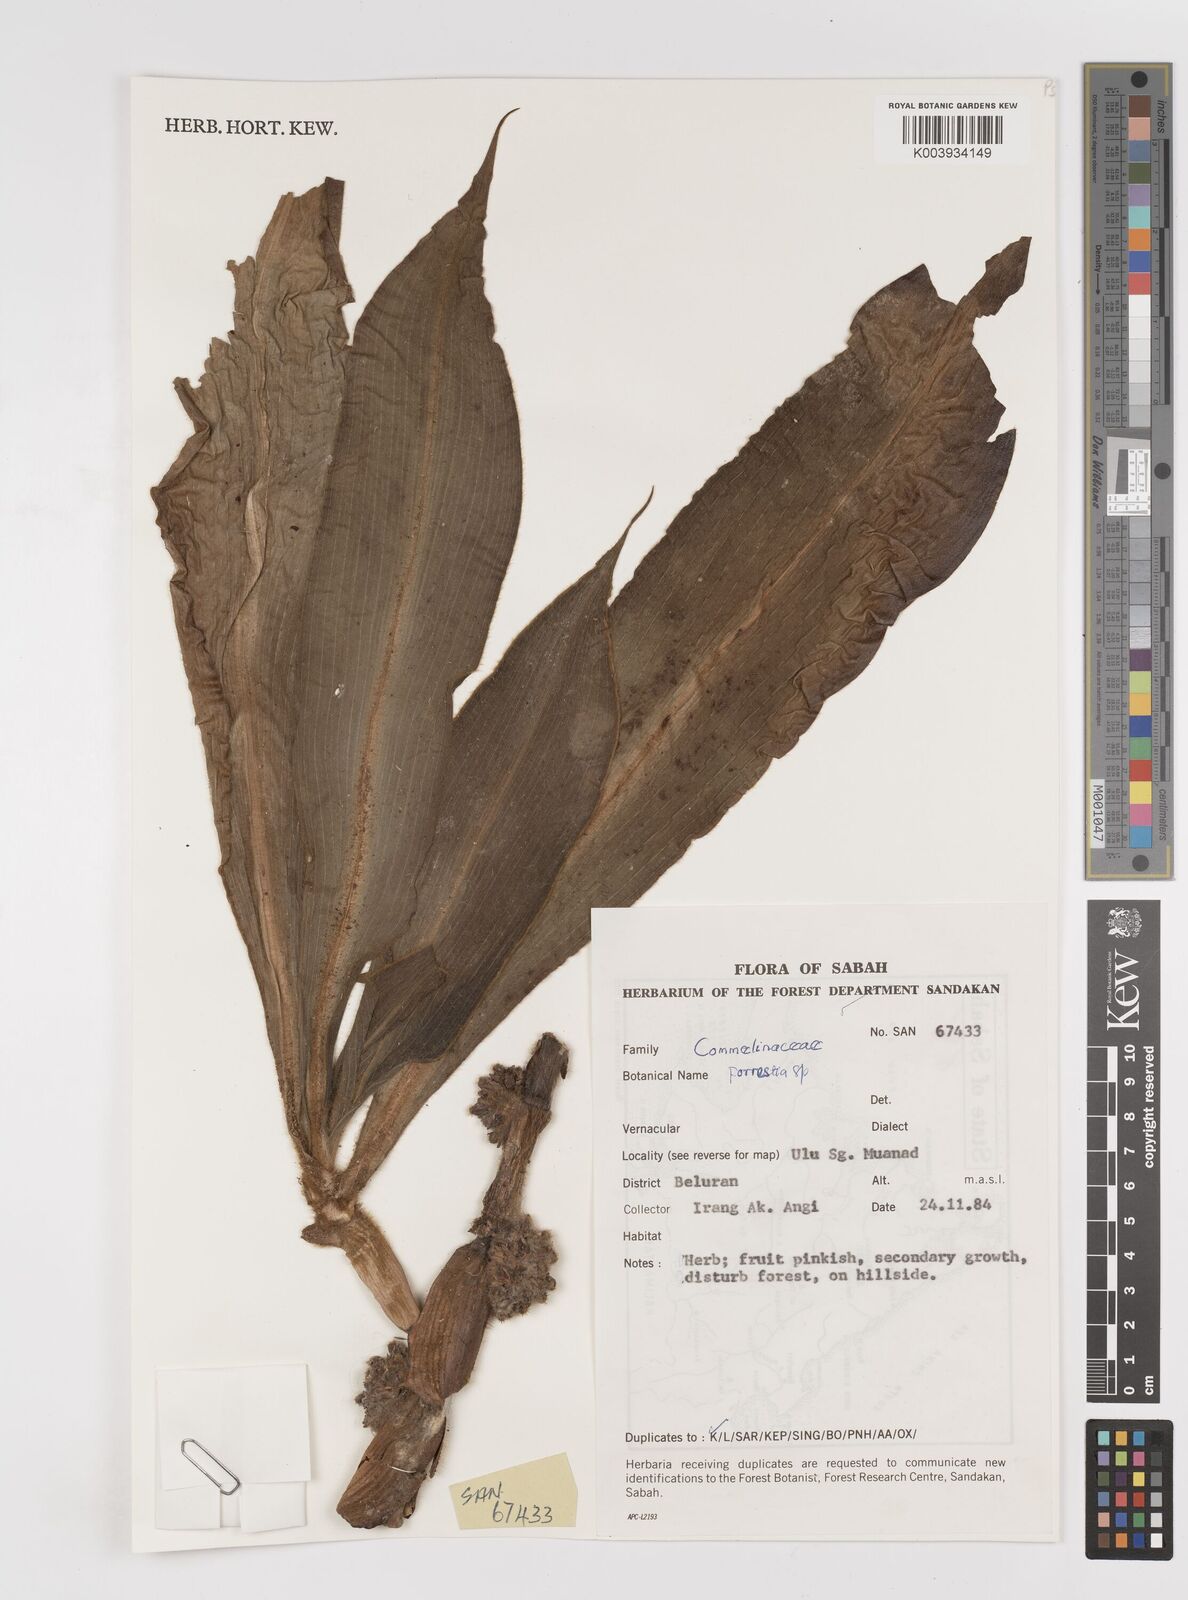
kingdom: Plantae
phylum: Tracheophyta
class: Liliopsida
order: Commelinales
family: Commelinaceae
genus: Amischotolype
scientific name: Amischotolype
